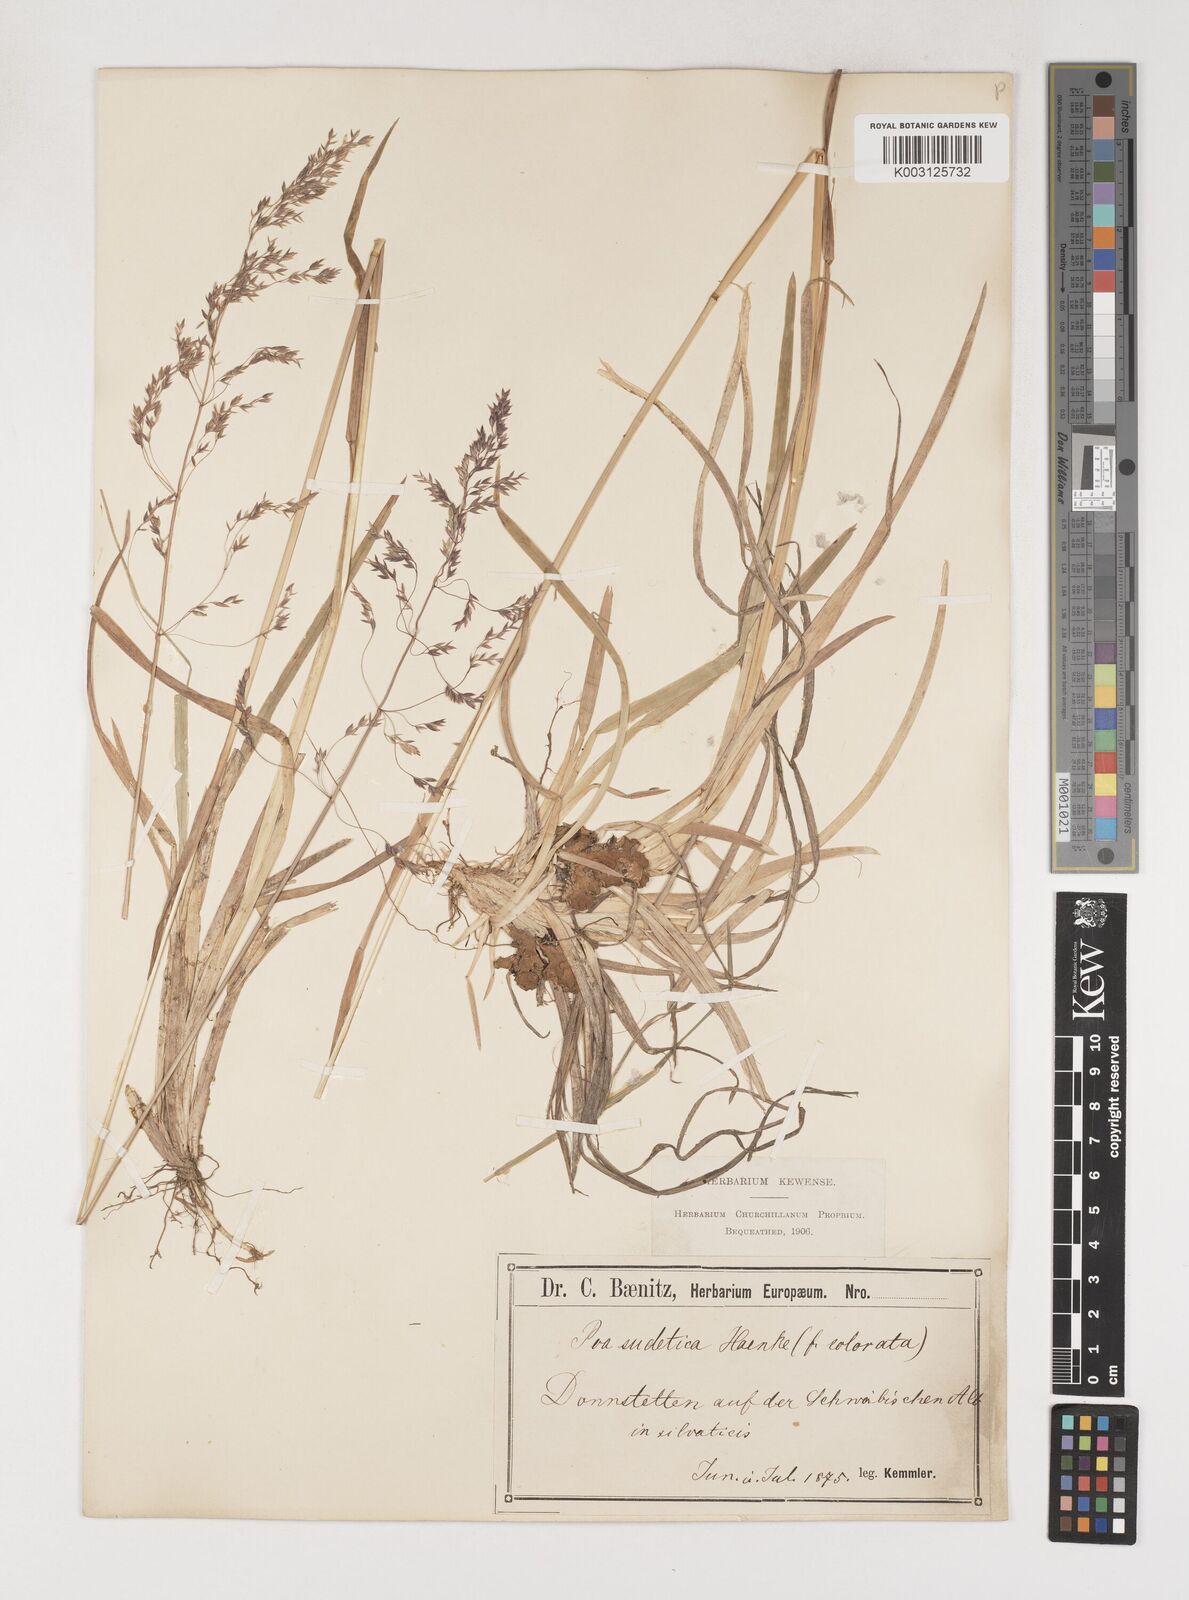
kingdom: Plantae
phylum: Tracheophyta
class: Liliopsida
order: Poales
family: Poaceae
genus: Poa
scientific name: Poa chaixii
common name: Broad-leaved meadow-grass
